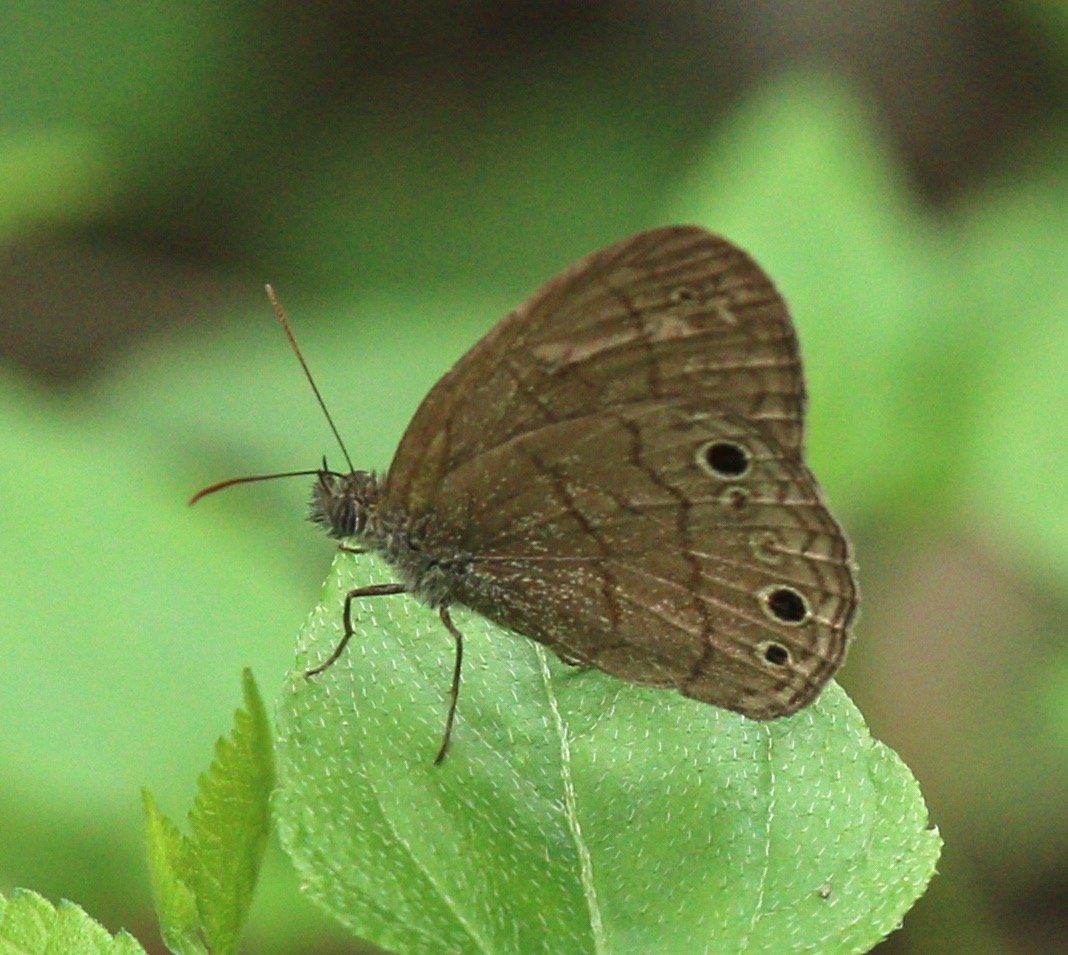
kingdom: Animalia
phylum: Arthropoda
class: Insecta
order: Lepidoptera
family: Nymphalidae
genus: Hermeuptychia
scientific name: Hermeuptychia hermybius
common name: South Texas Satyr
